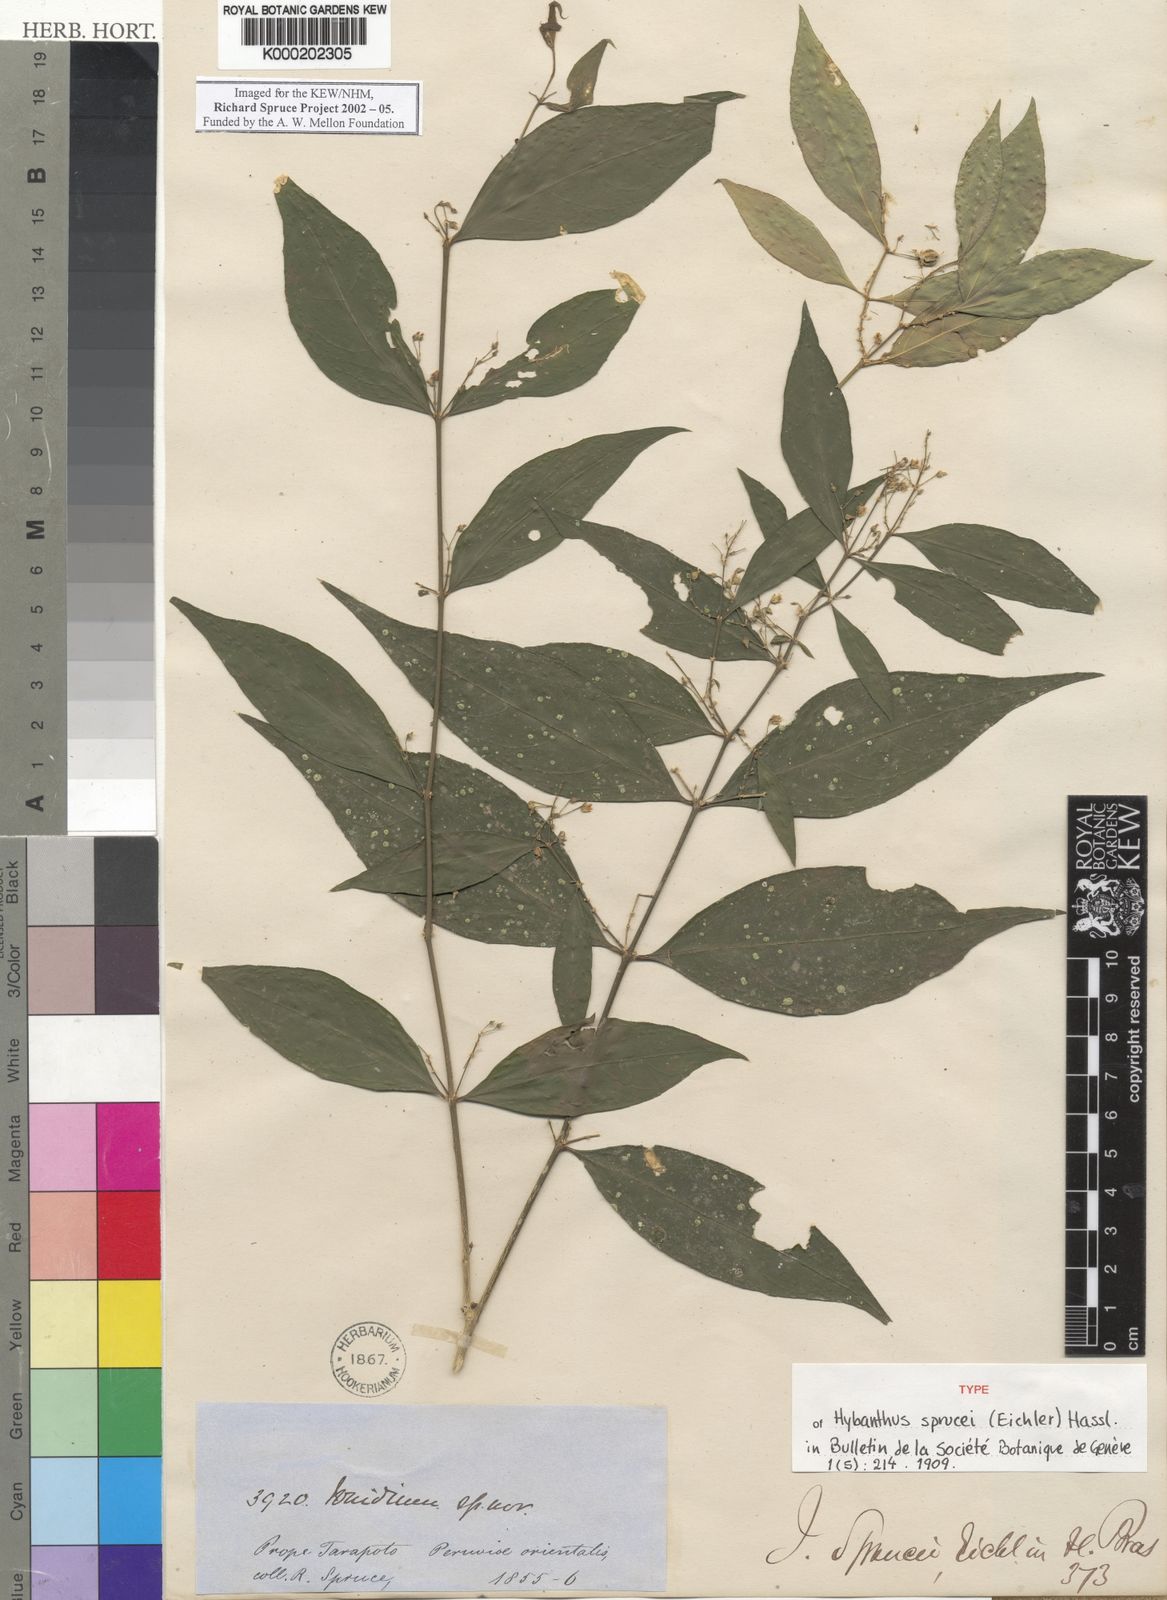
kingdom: Plantae
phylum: Tracheophyta
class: Magnoliopsida
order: Malpighiales
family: Violaceae
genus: Pombalia
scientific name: Pombalia sprucei
